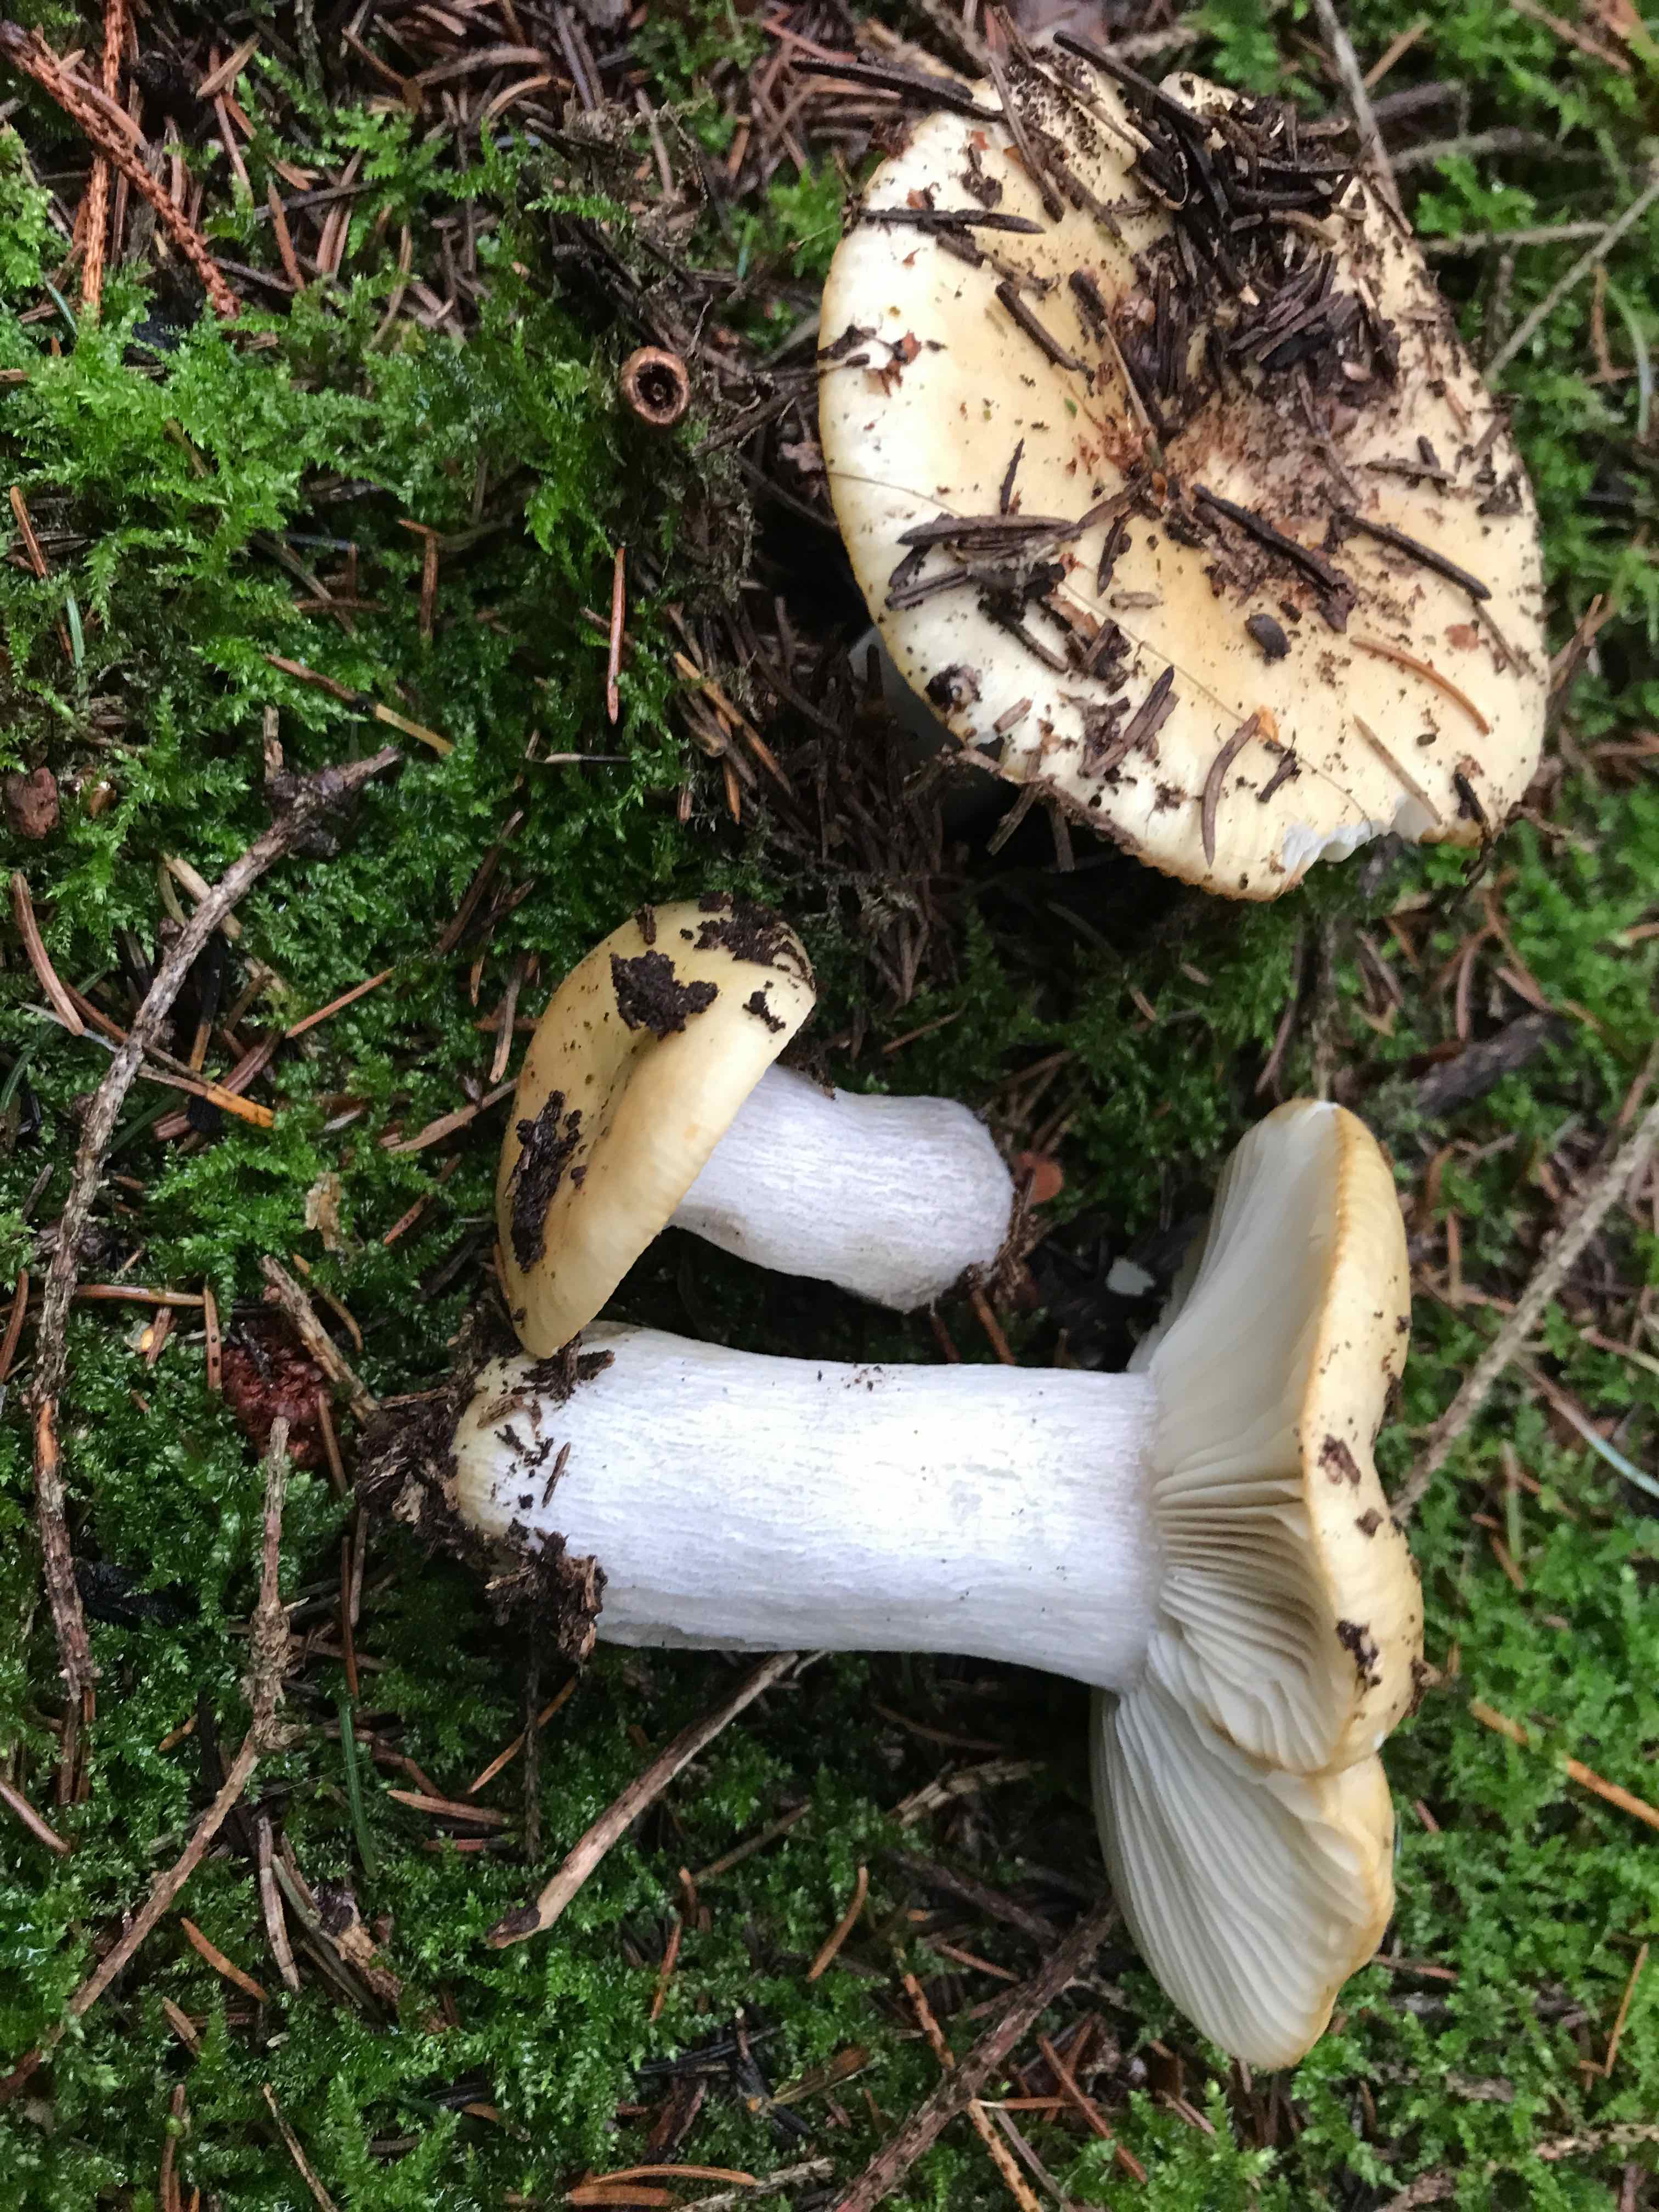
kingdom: Fungi
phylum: Basidiomycota
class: Agaricomycetes
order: Russulales
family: Russulaceae
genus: Russula
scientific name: Russula ochroleuca
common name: okkergul skørhat
